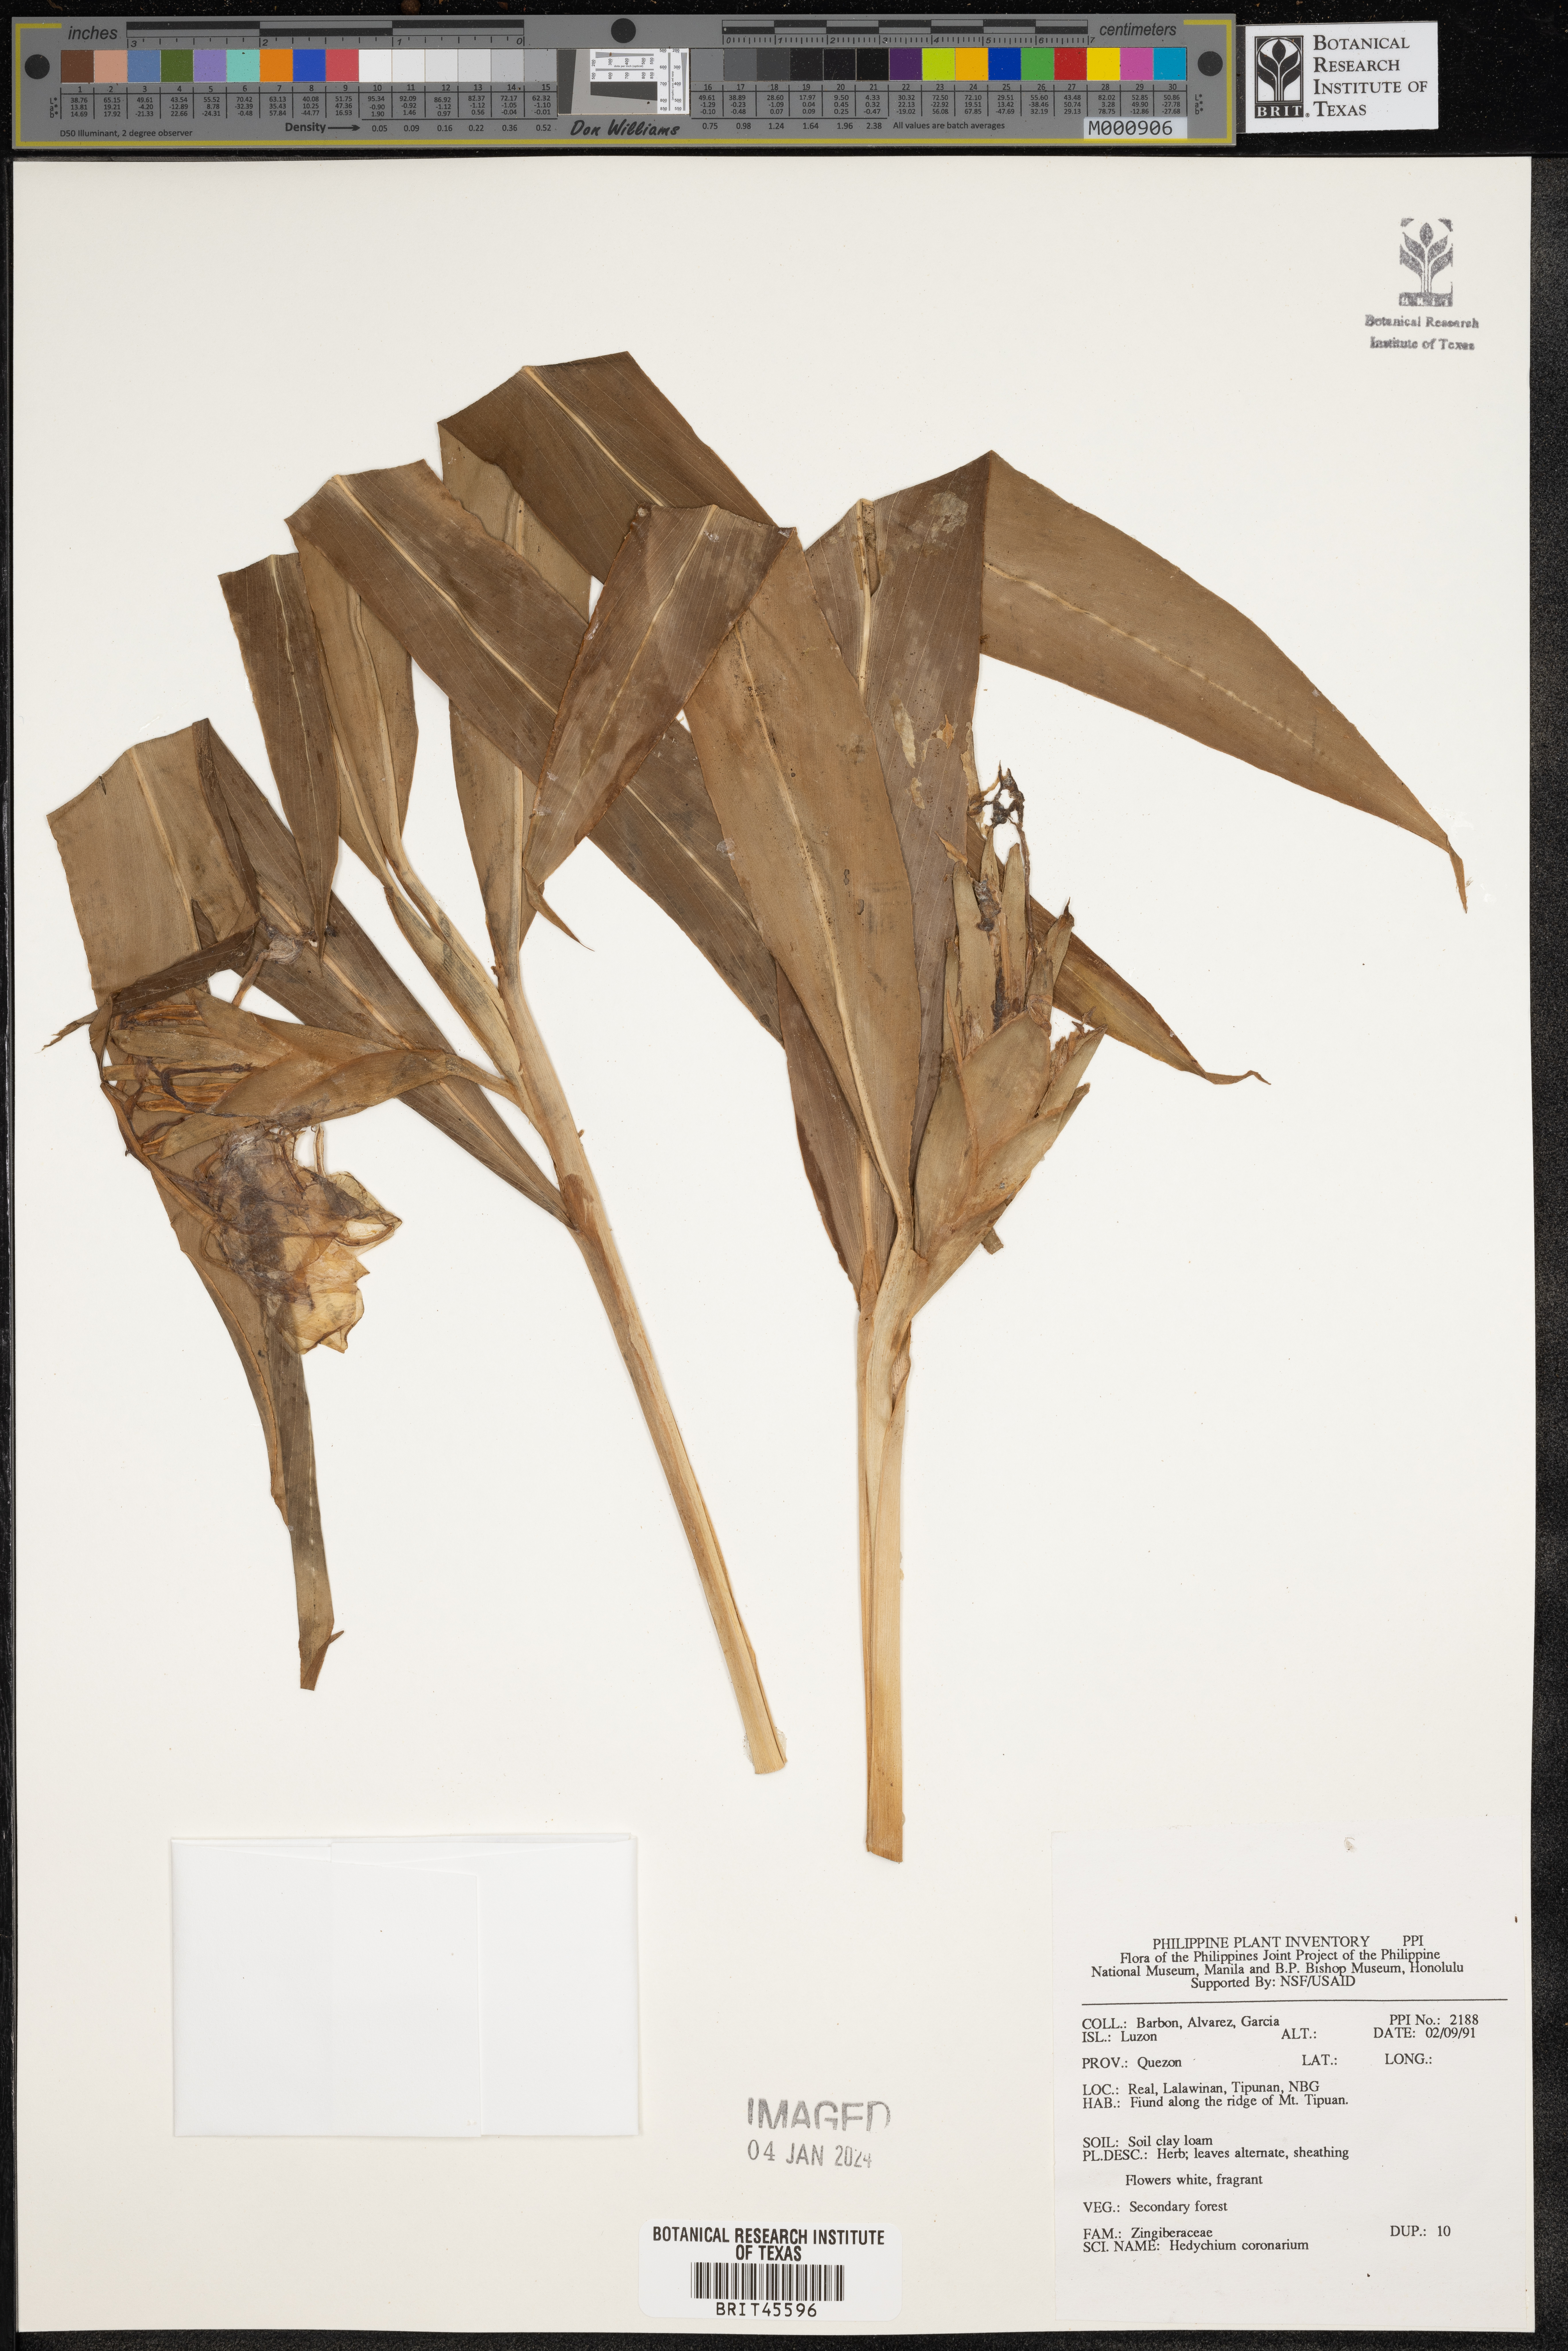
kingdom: Plantae
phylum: Tracheophyta
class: Liliopsida
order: Zingiberales
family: Zingiberaceae
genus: Hedychium
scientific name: Hedychium coronarium
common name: White garland-lily
